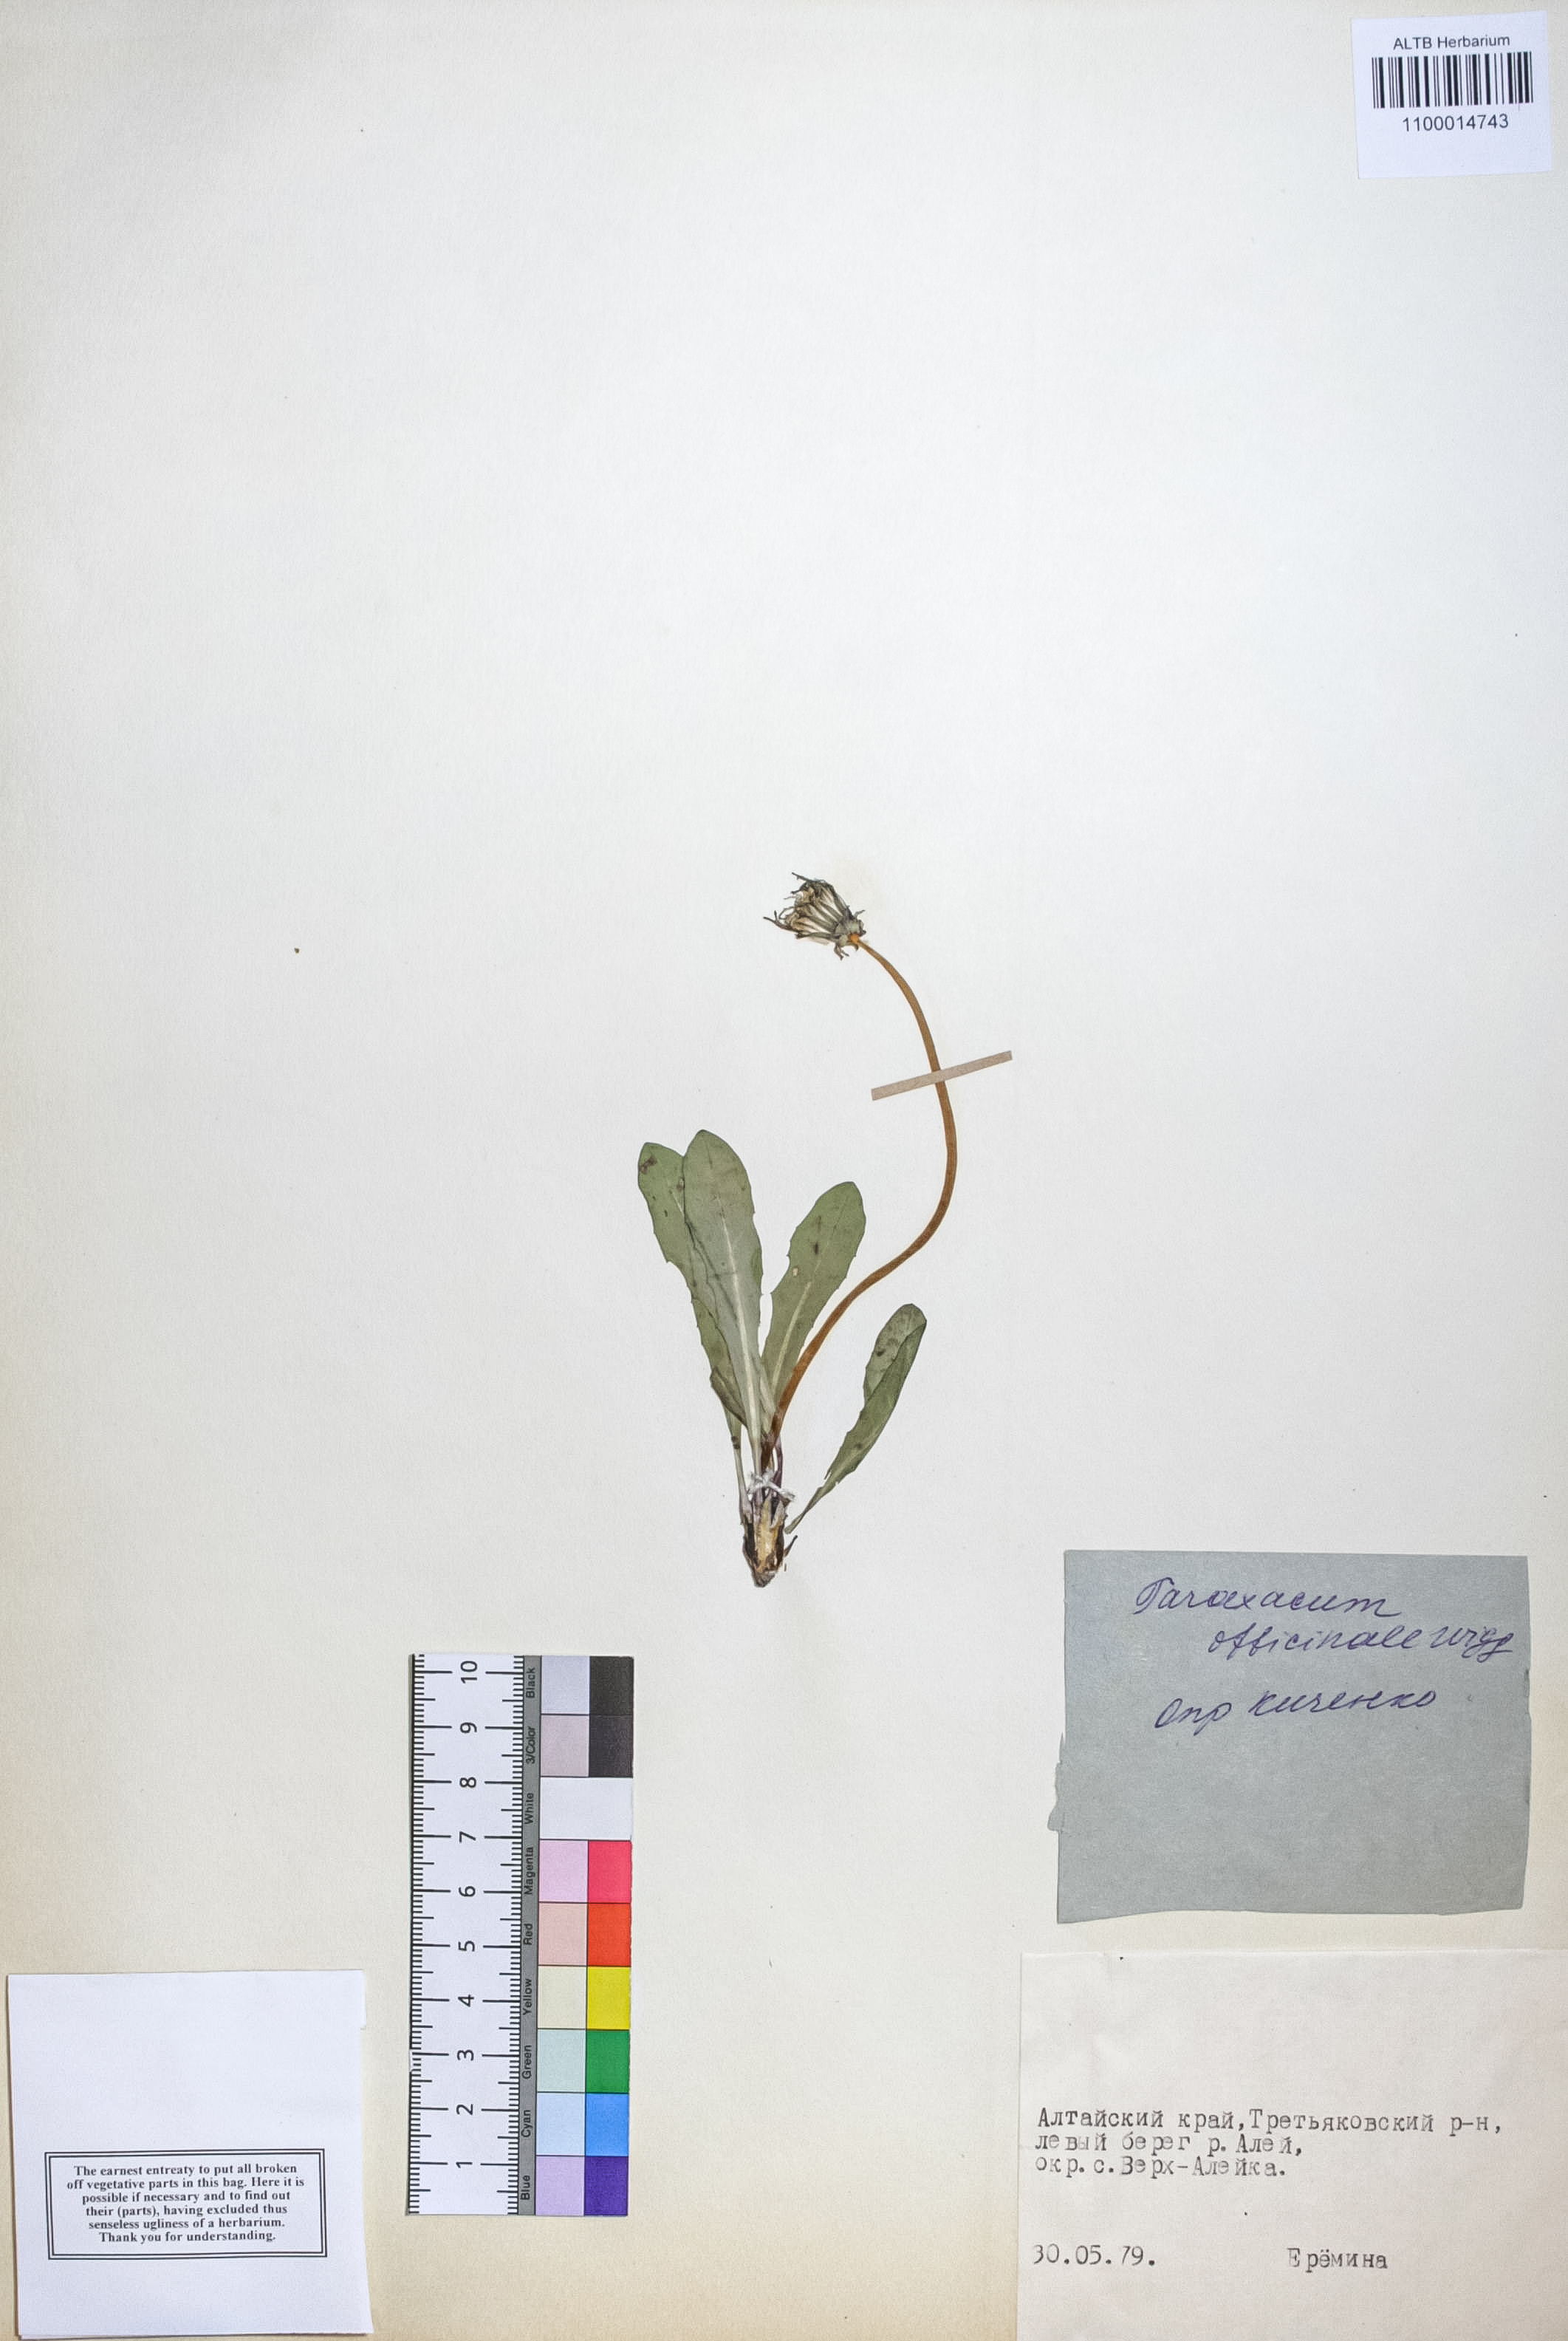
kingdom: Plantae
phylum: Tracheophyta
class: Magnoliopsida
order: Asterales
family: Asteraceae
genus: Taraxacum
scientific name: Taraxacum officinale
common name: Common dandelion
